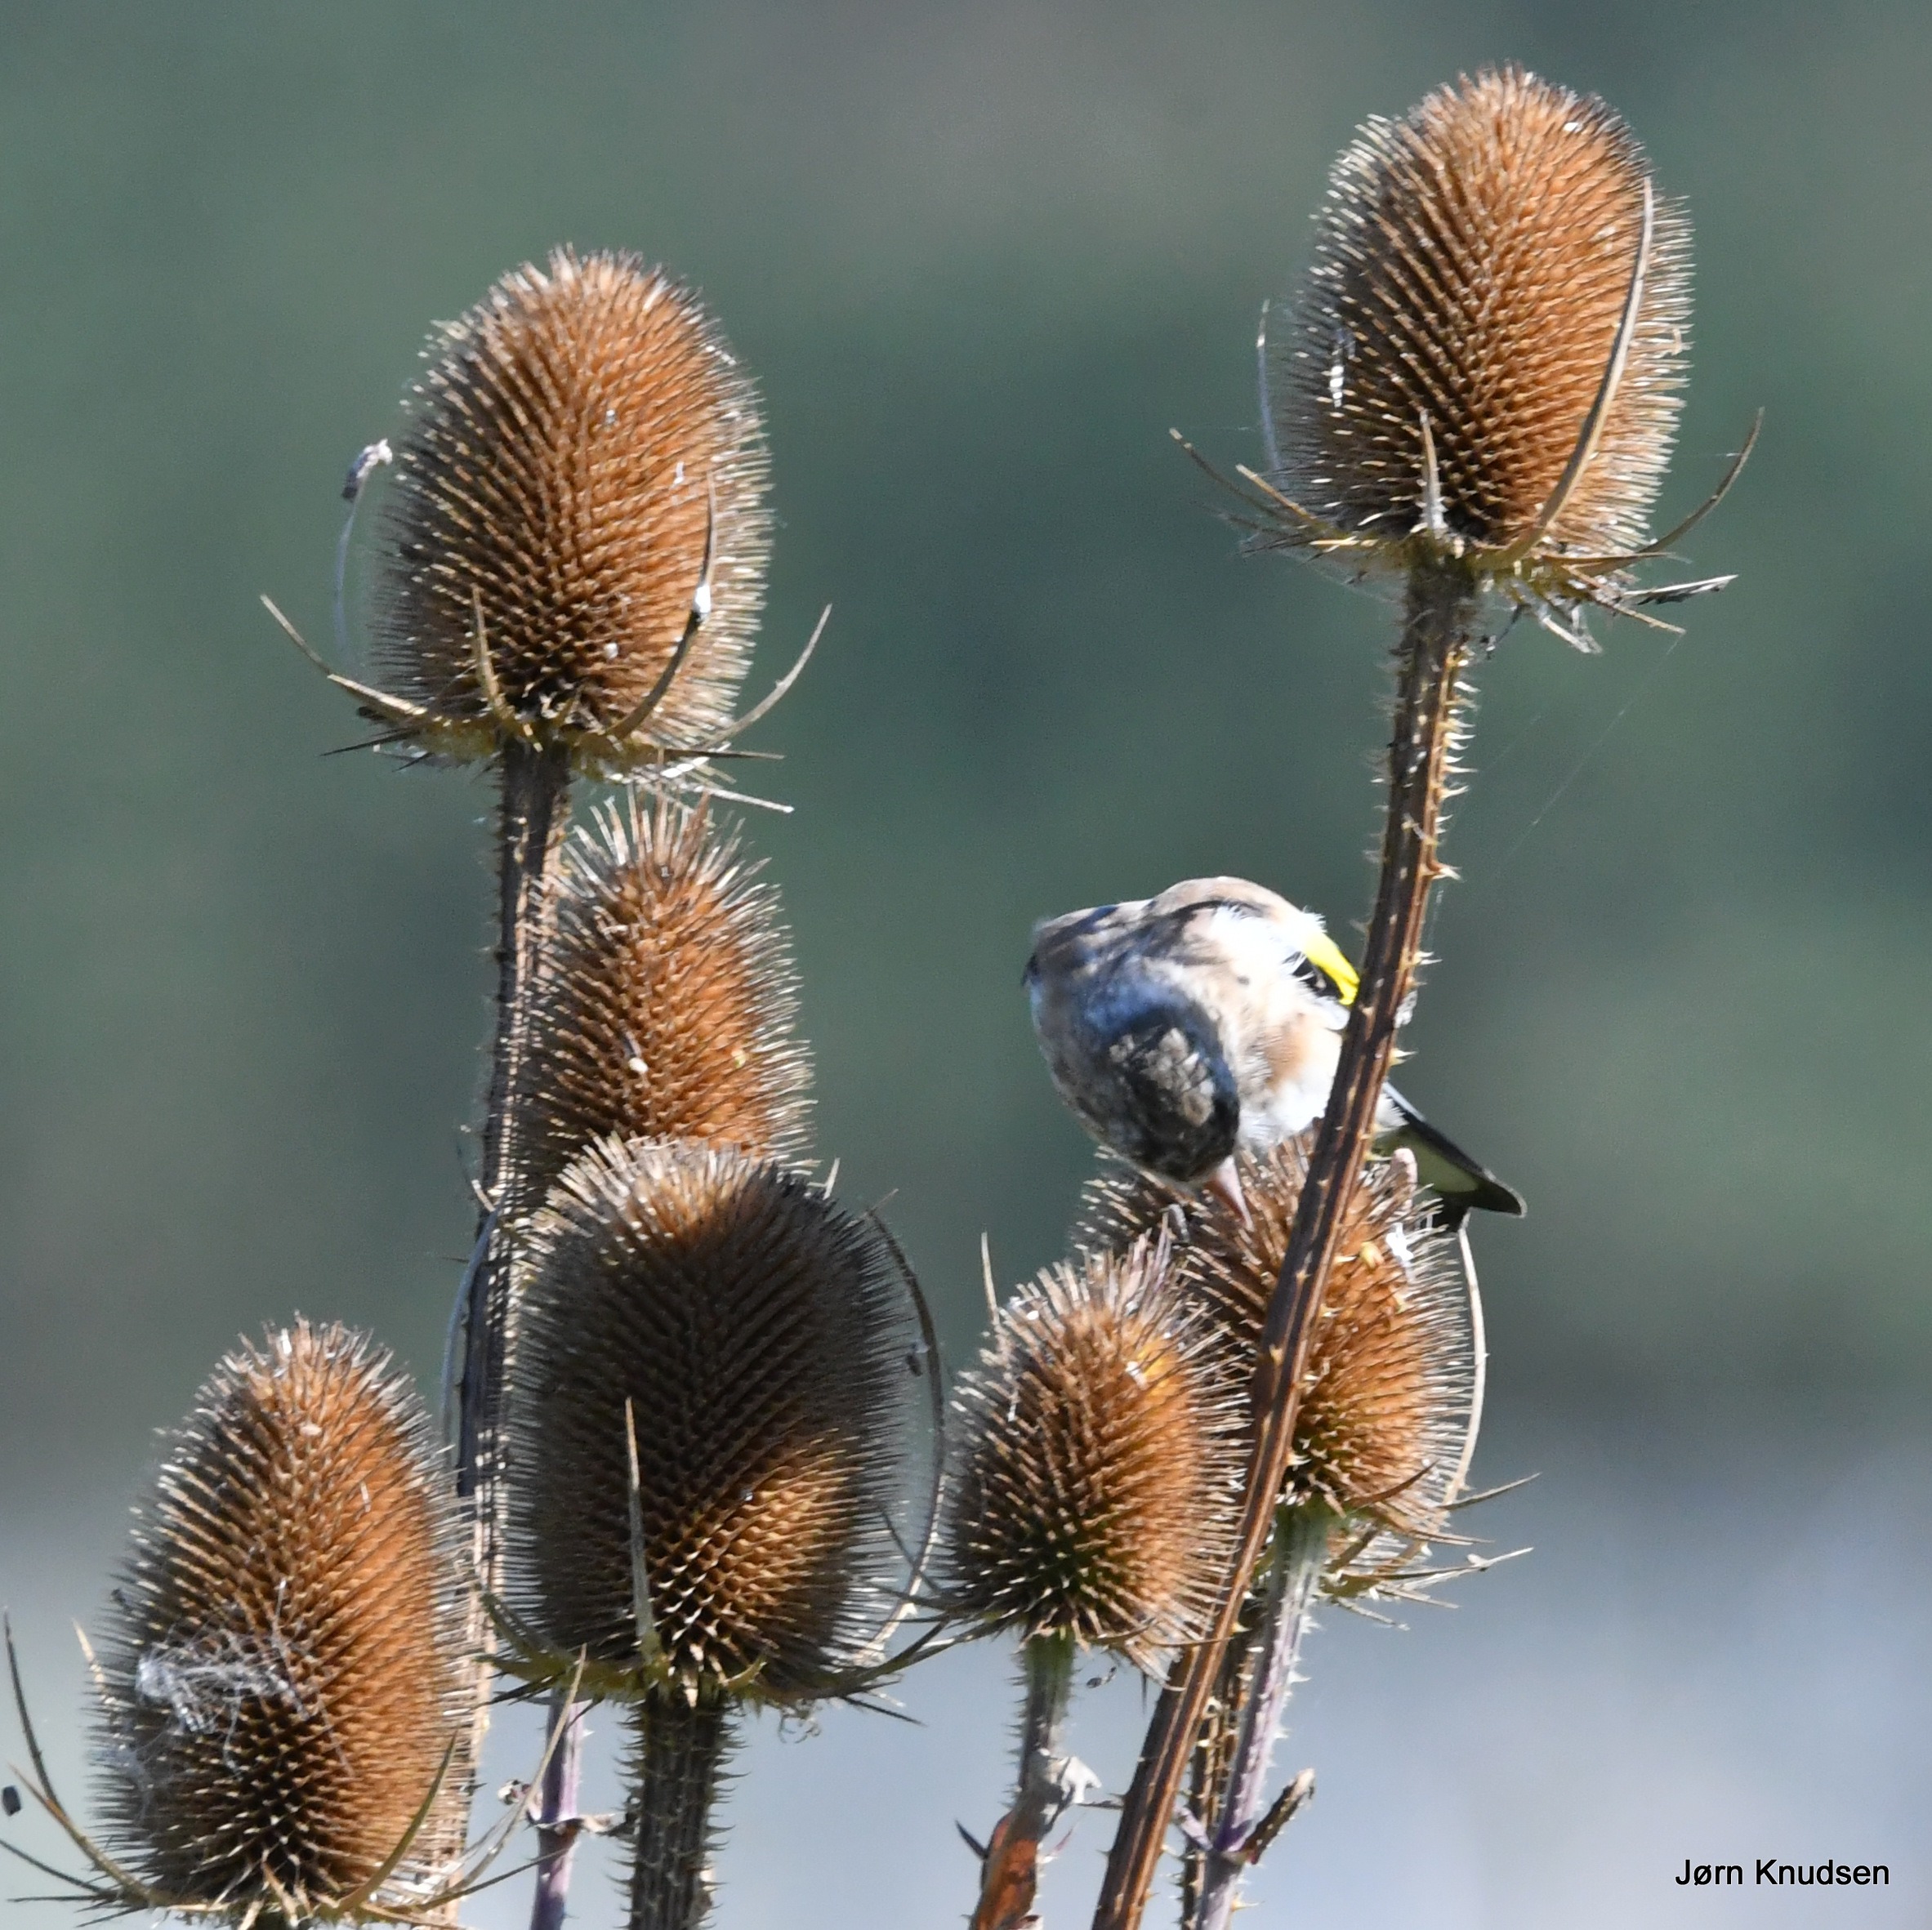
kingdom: Animalia
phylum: Chordata
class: Aves
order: Passeriformes
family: Fringillidae
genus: Carduelis
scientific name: Carduelis carduelis
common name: Stillits
